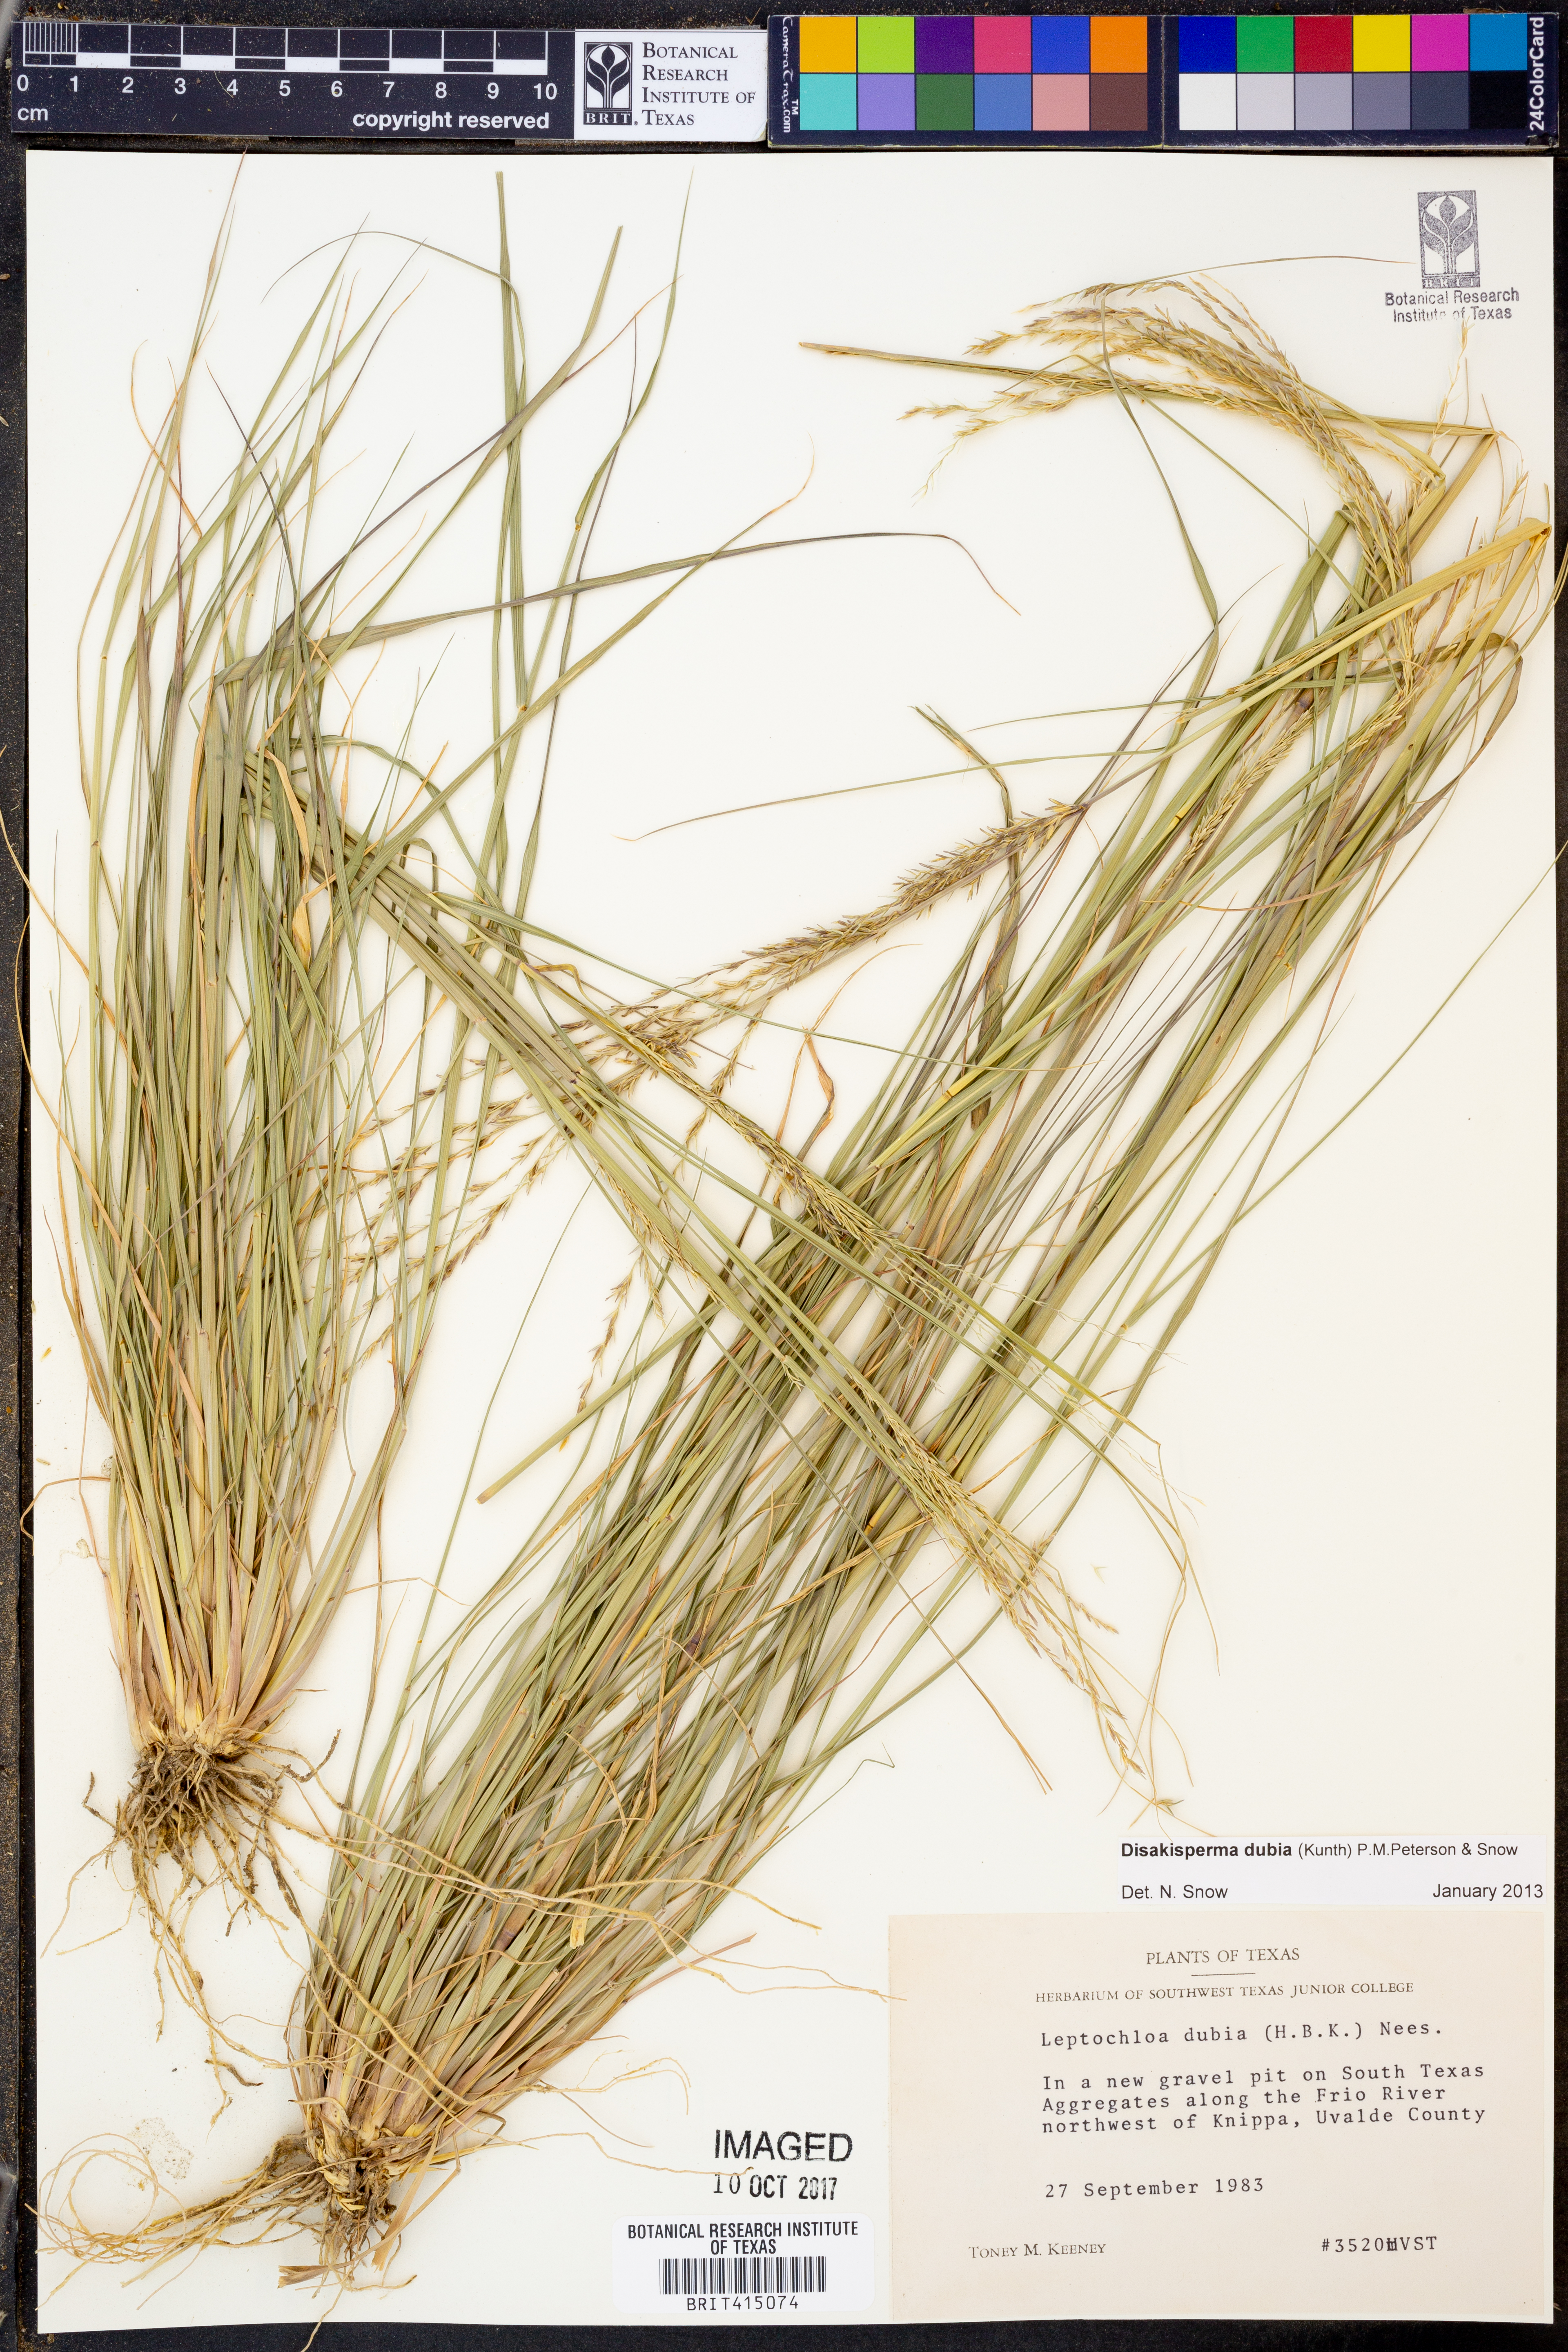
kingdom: Plantae
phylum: Tracheophyta
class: Liliopsida
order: Poales
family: Poaceae
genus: Disakisperma
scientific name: Disakisperma dubium
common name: Green sprangletop
